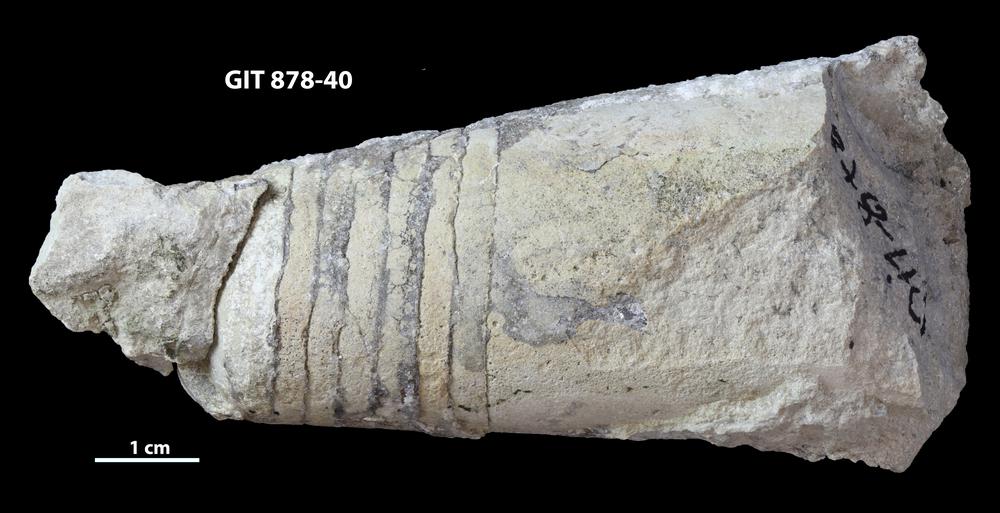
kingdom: Animalia
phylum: Mollusca
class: Cephalopoda
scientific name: Cephalopoda
